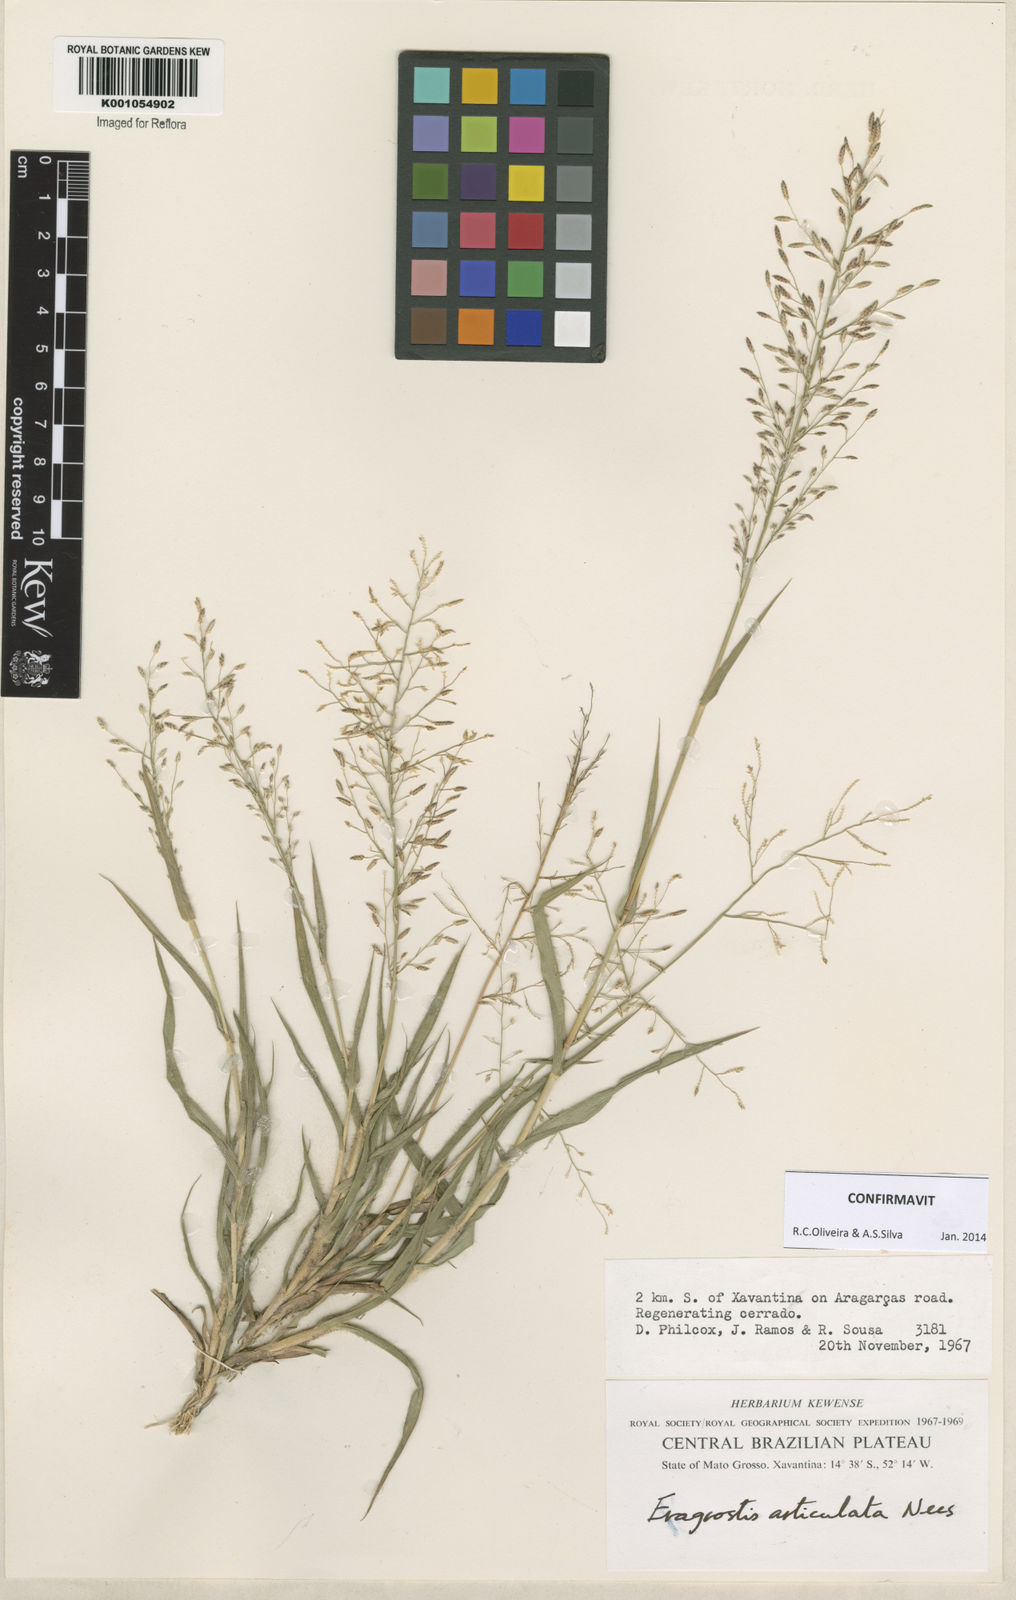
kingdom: Plantae
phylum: Tracheophyta
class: Liliopsida
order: Poales
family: Poaceae
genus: Eragrostis
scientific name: Eragrostis articulata
